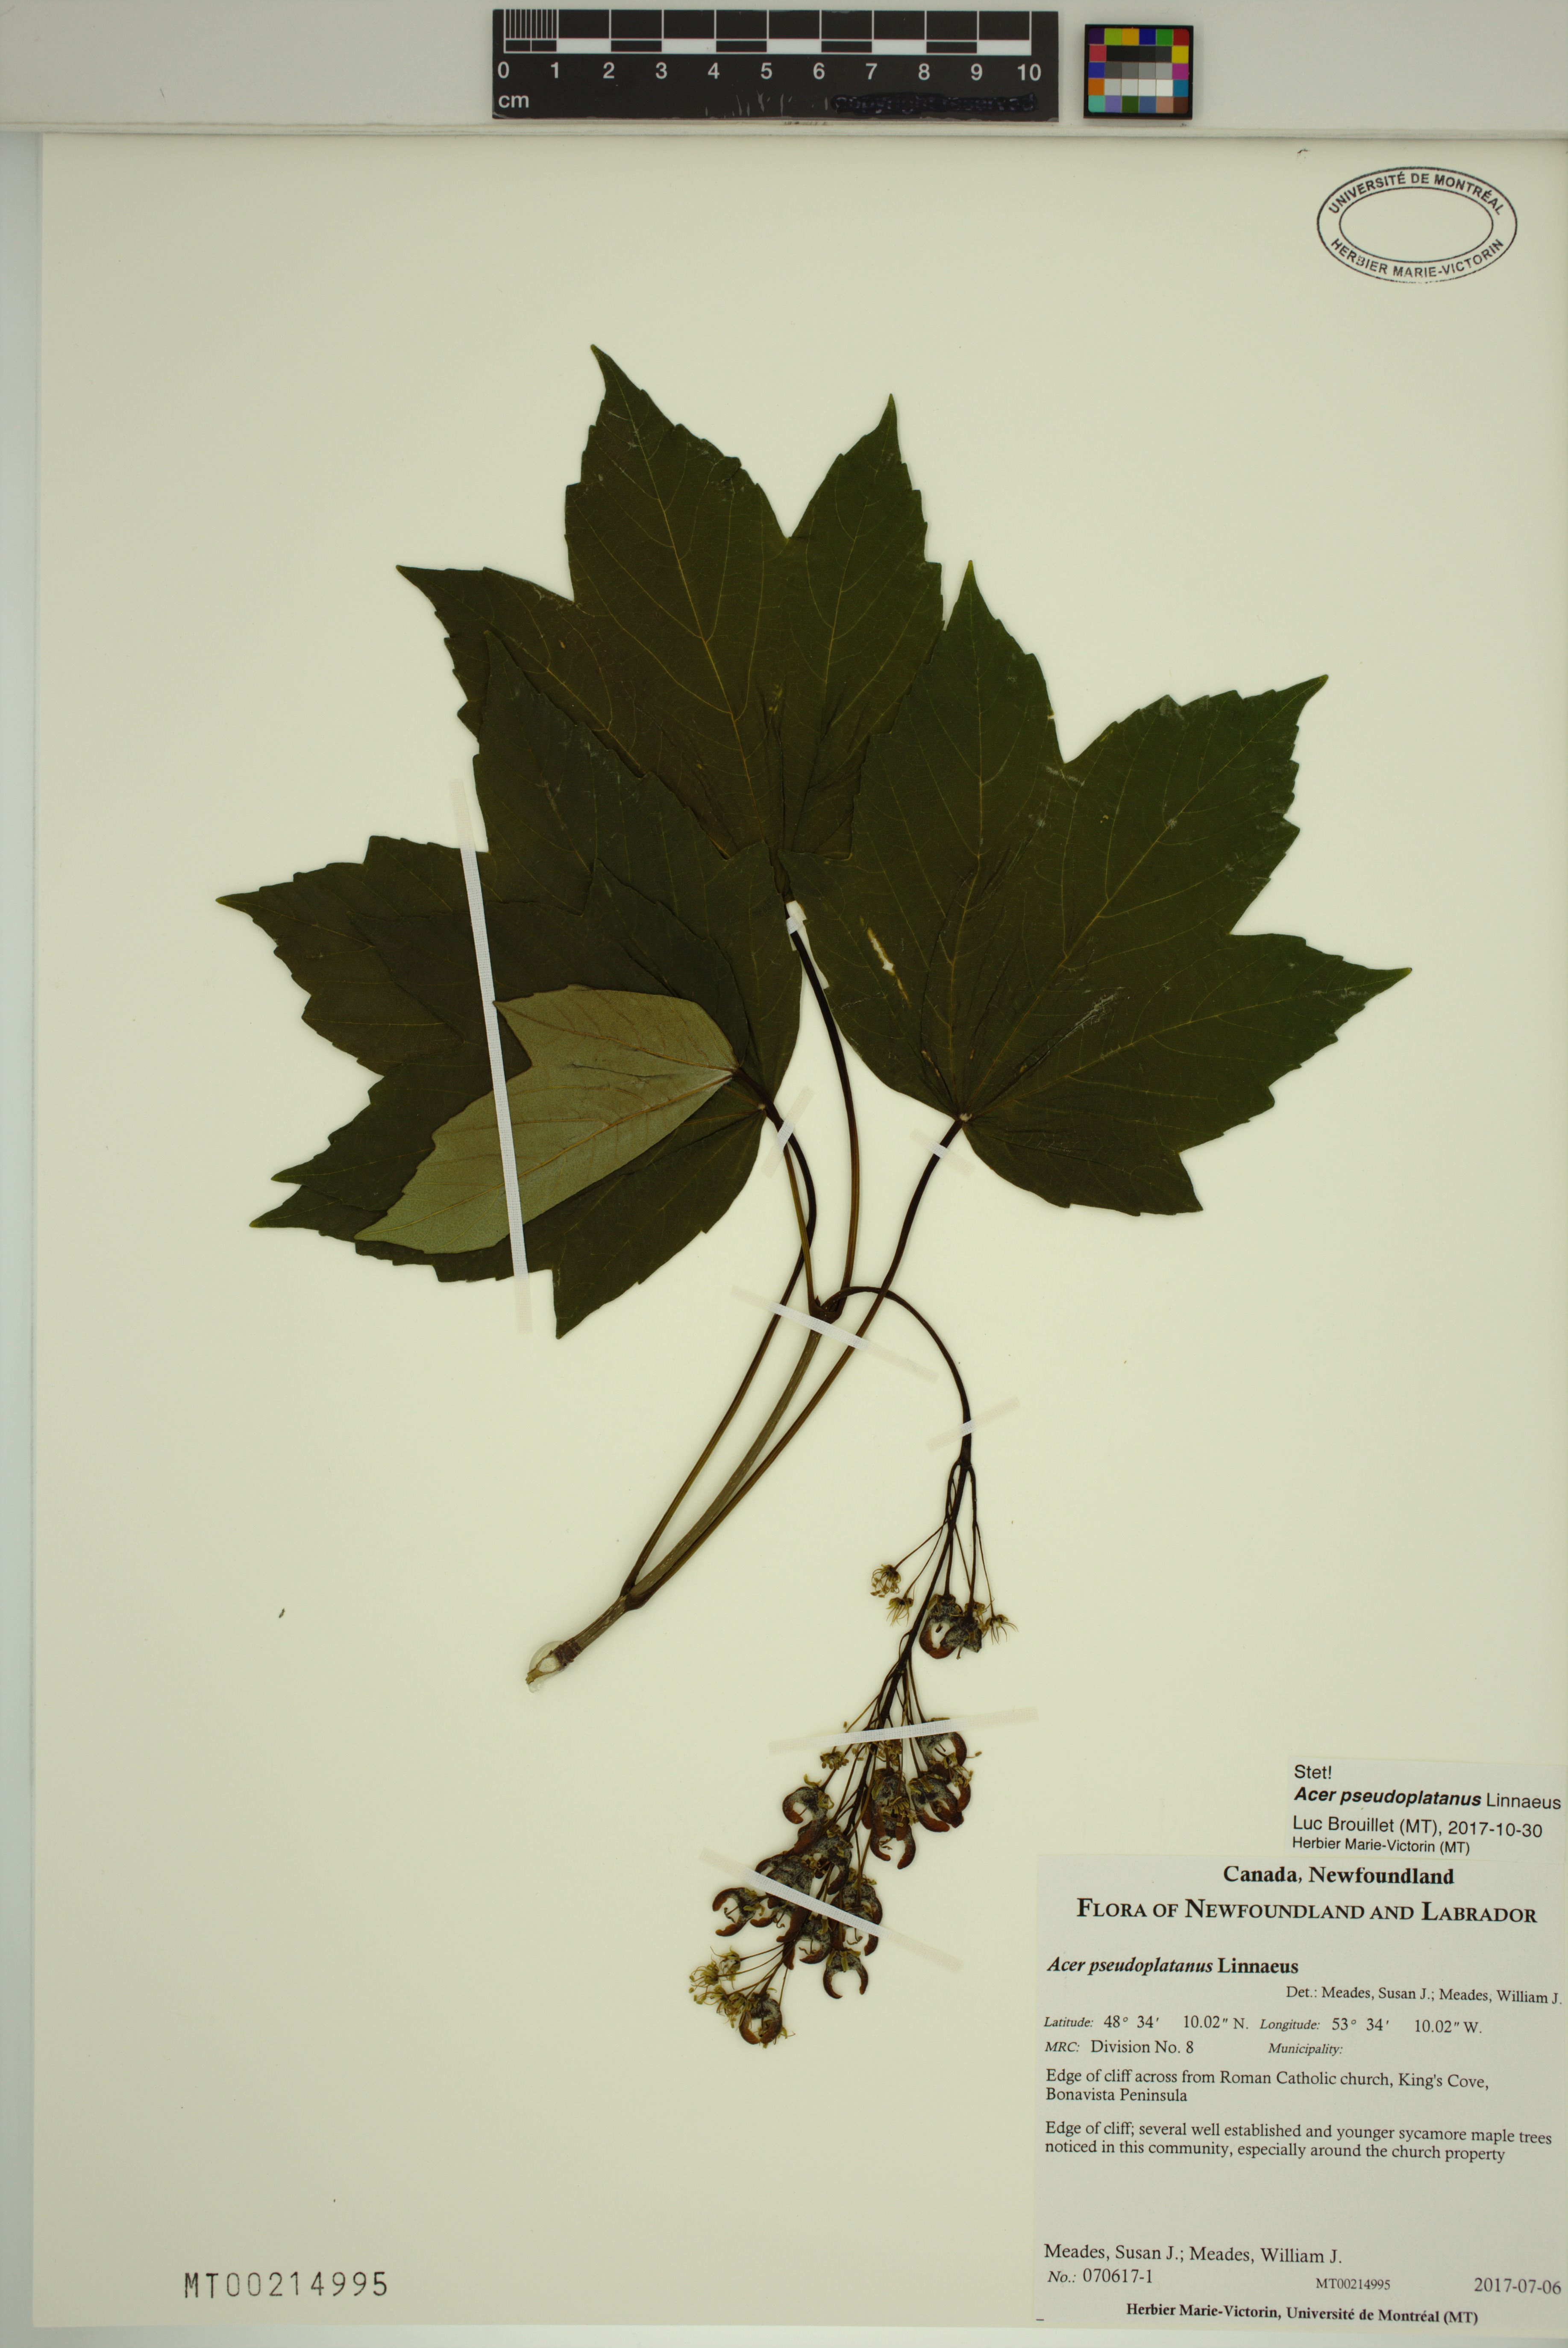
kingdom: Plantae
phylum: Tracheophyta
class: Magnoliopsida
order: Sapindales
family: Sapindaceae
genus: Acer
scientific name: Acer pseudoplatanus
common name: Sycamore
